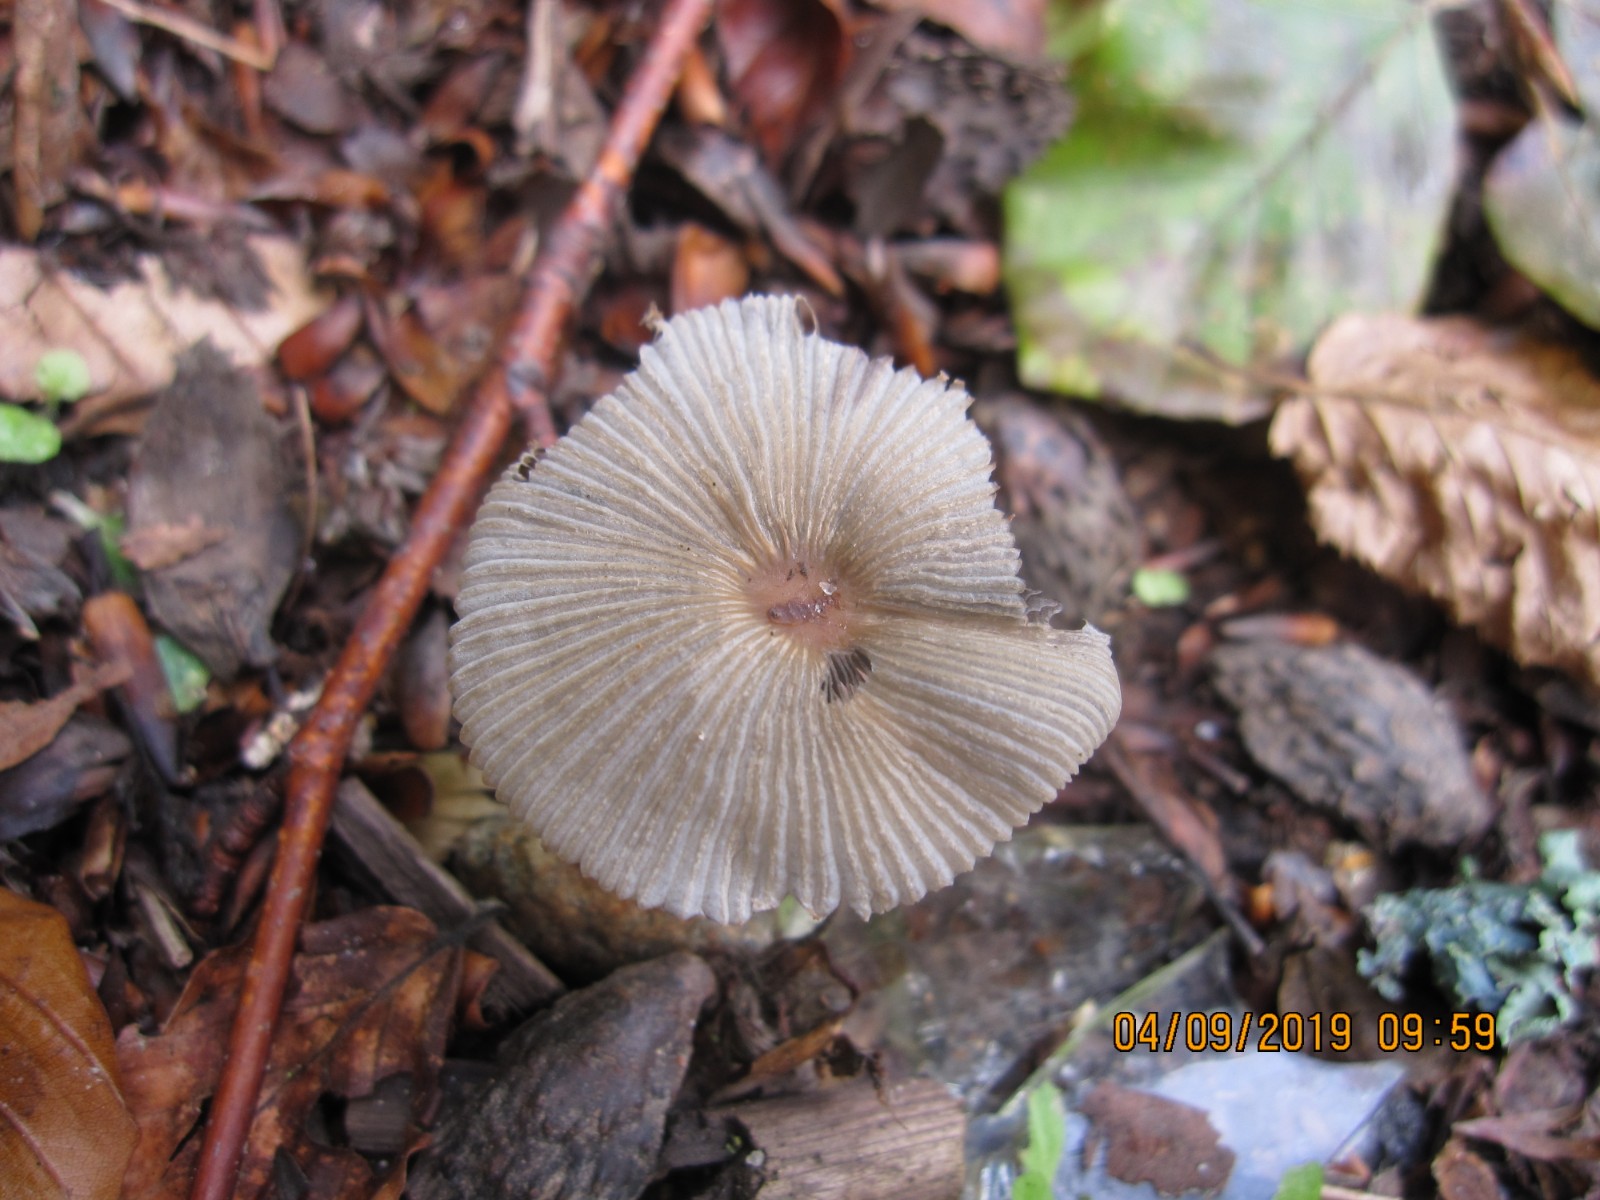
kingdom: Fungi
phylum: Basidiomycota
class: Agaricomycetes
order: Agaricales
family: Psathyrellaceae
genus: Parasola
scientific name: Parasola kuehneri
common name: skygge-hjulhat
